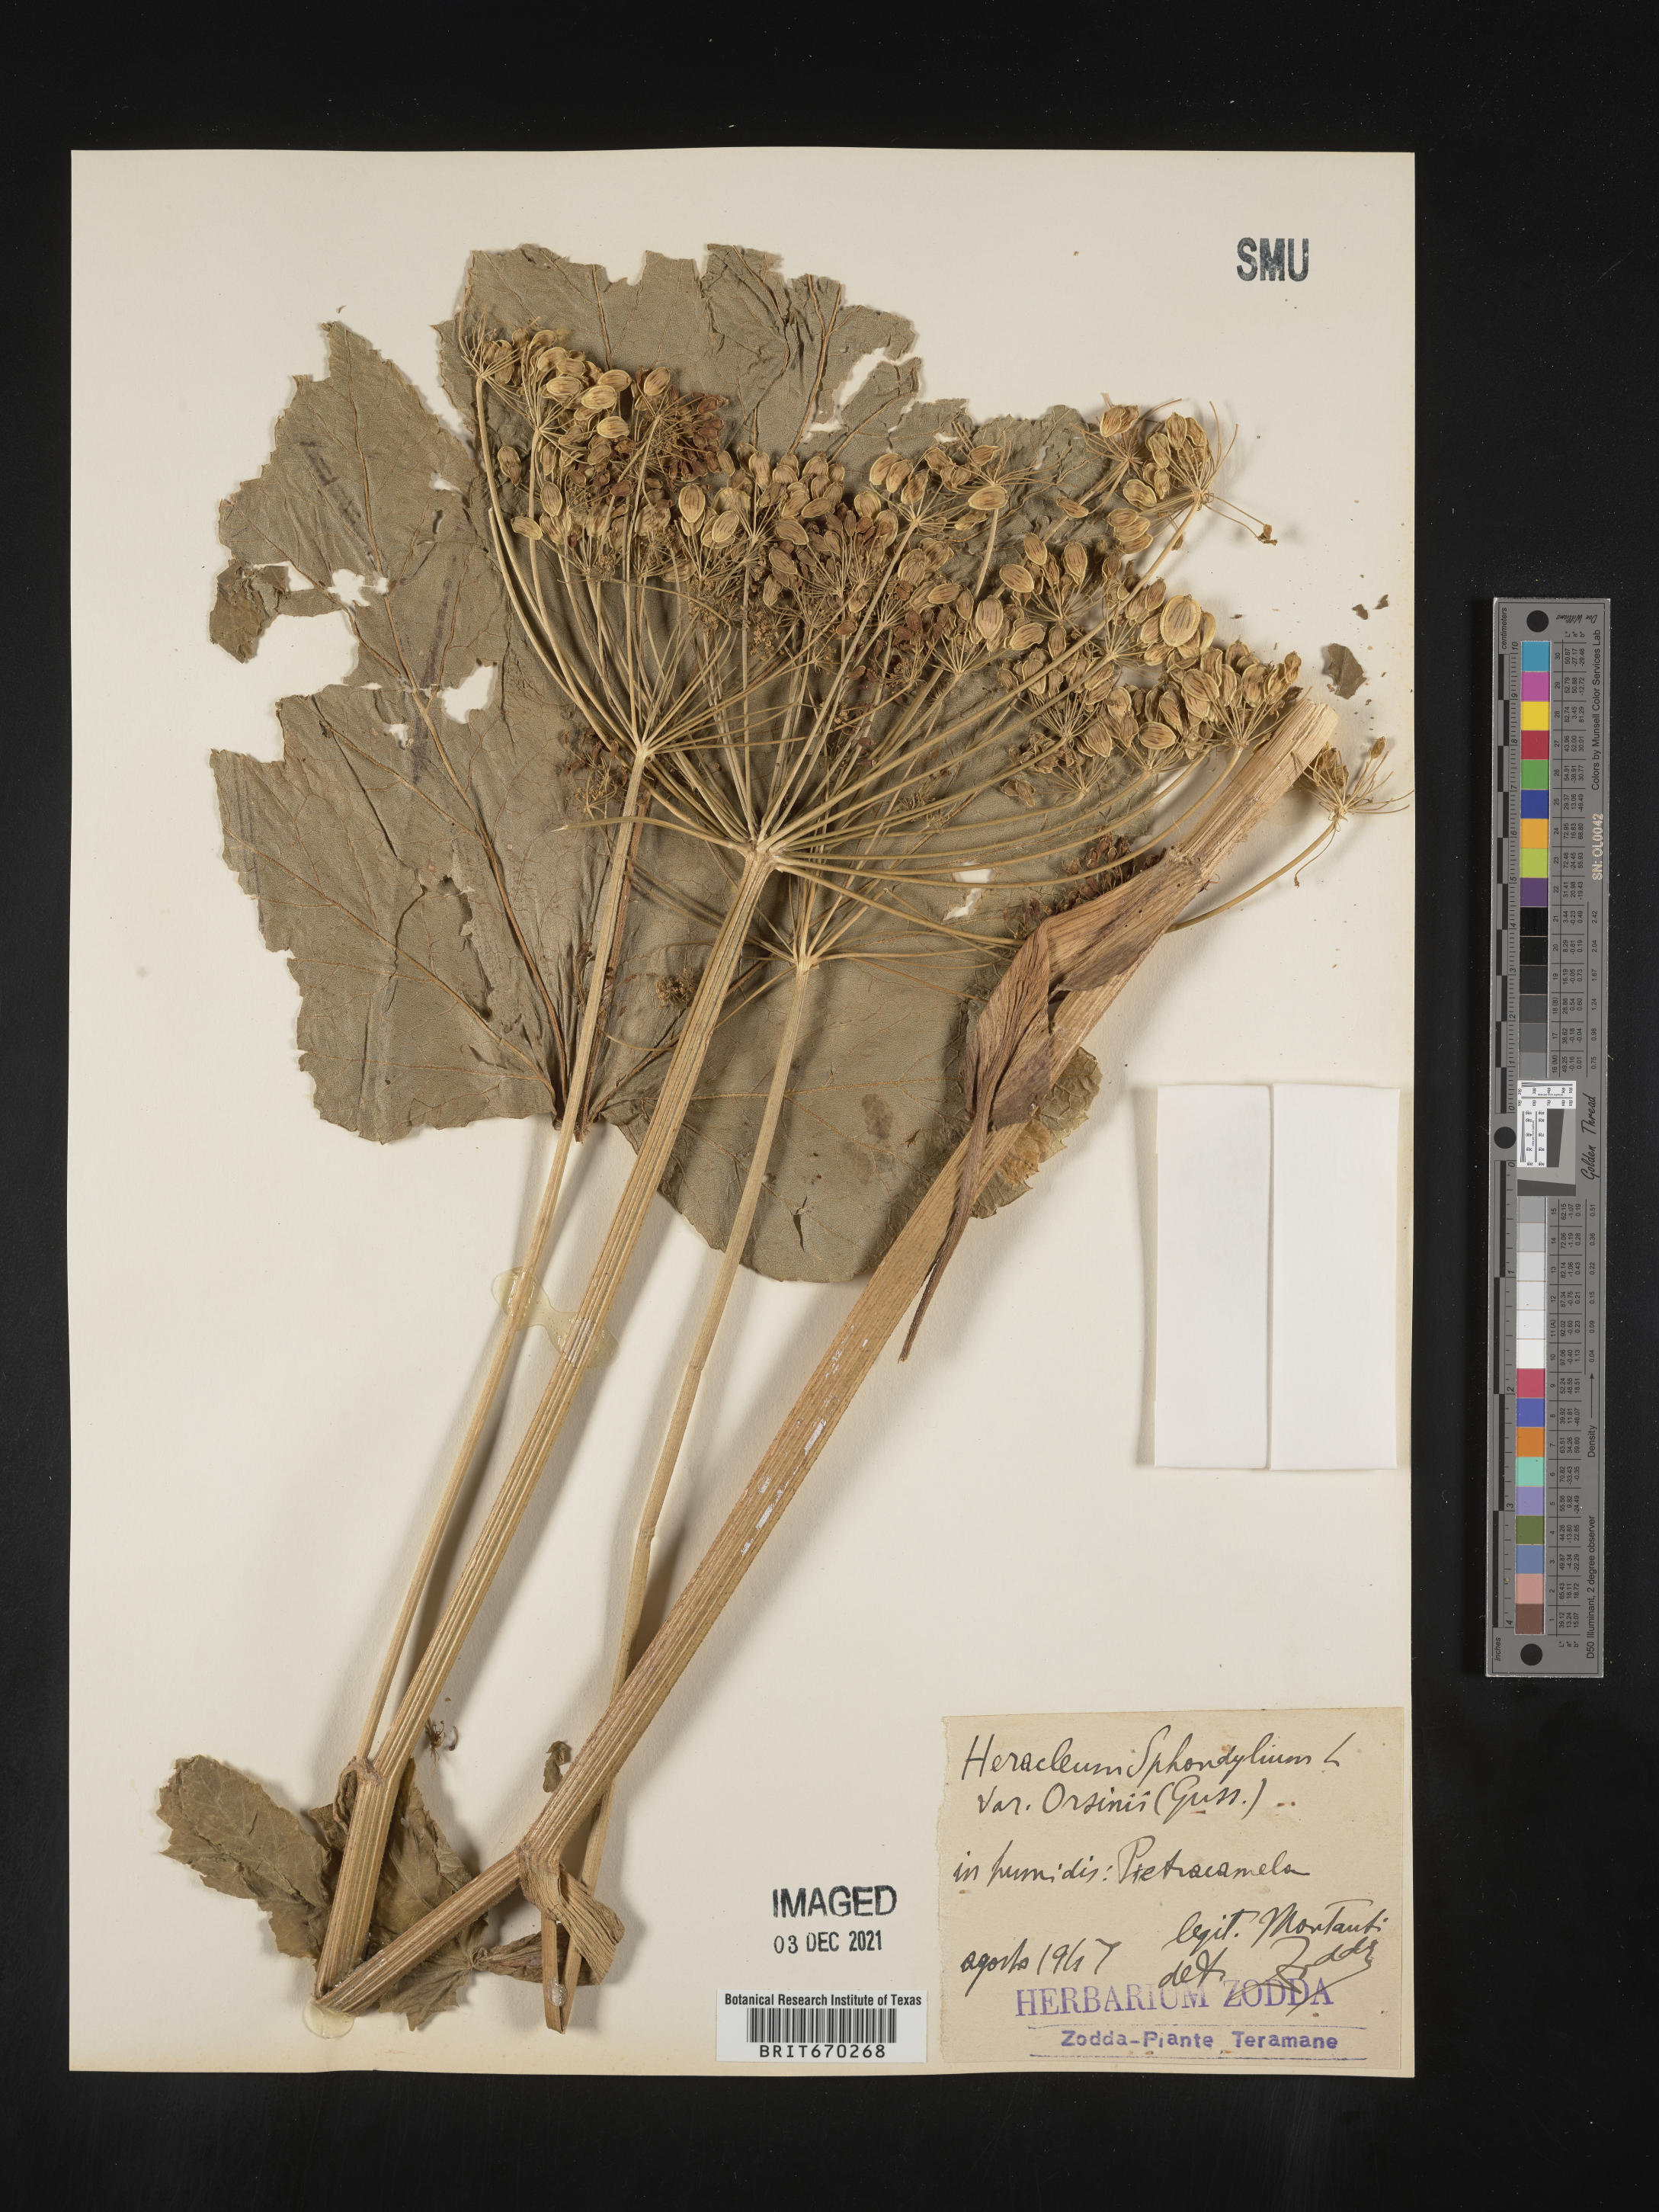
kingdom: Plantae
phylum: Tracheophyta
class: Magnoliopsida
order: Apiales
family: Apiaceae
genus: Heracleum
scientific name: Heracleum
